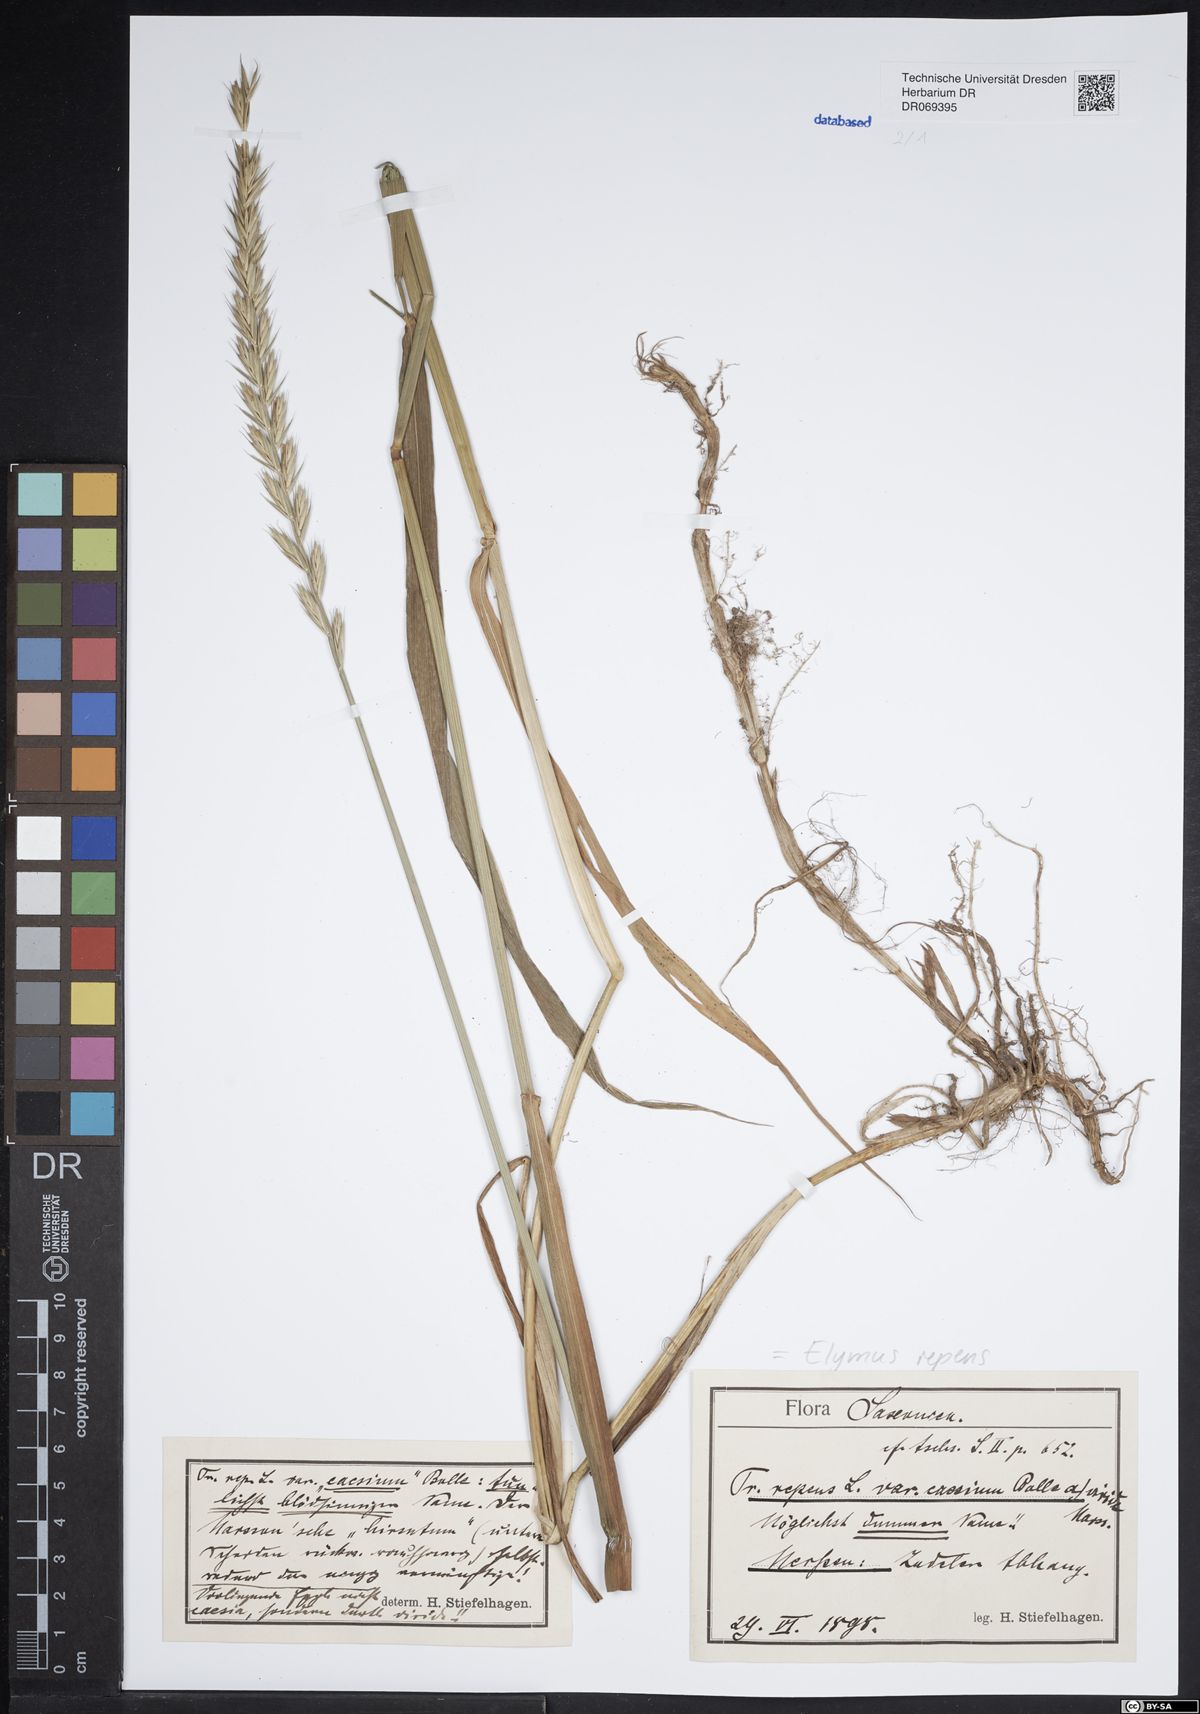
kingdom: Plantae
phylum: Tracheophyta
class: Liliopsida
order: Poales
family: Poaceae
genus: Elymus
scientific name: Elymus repens
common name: Quackgrass
